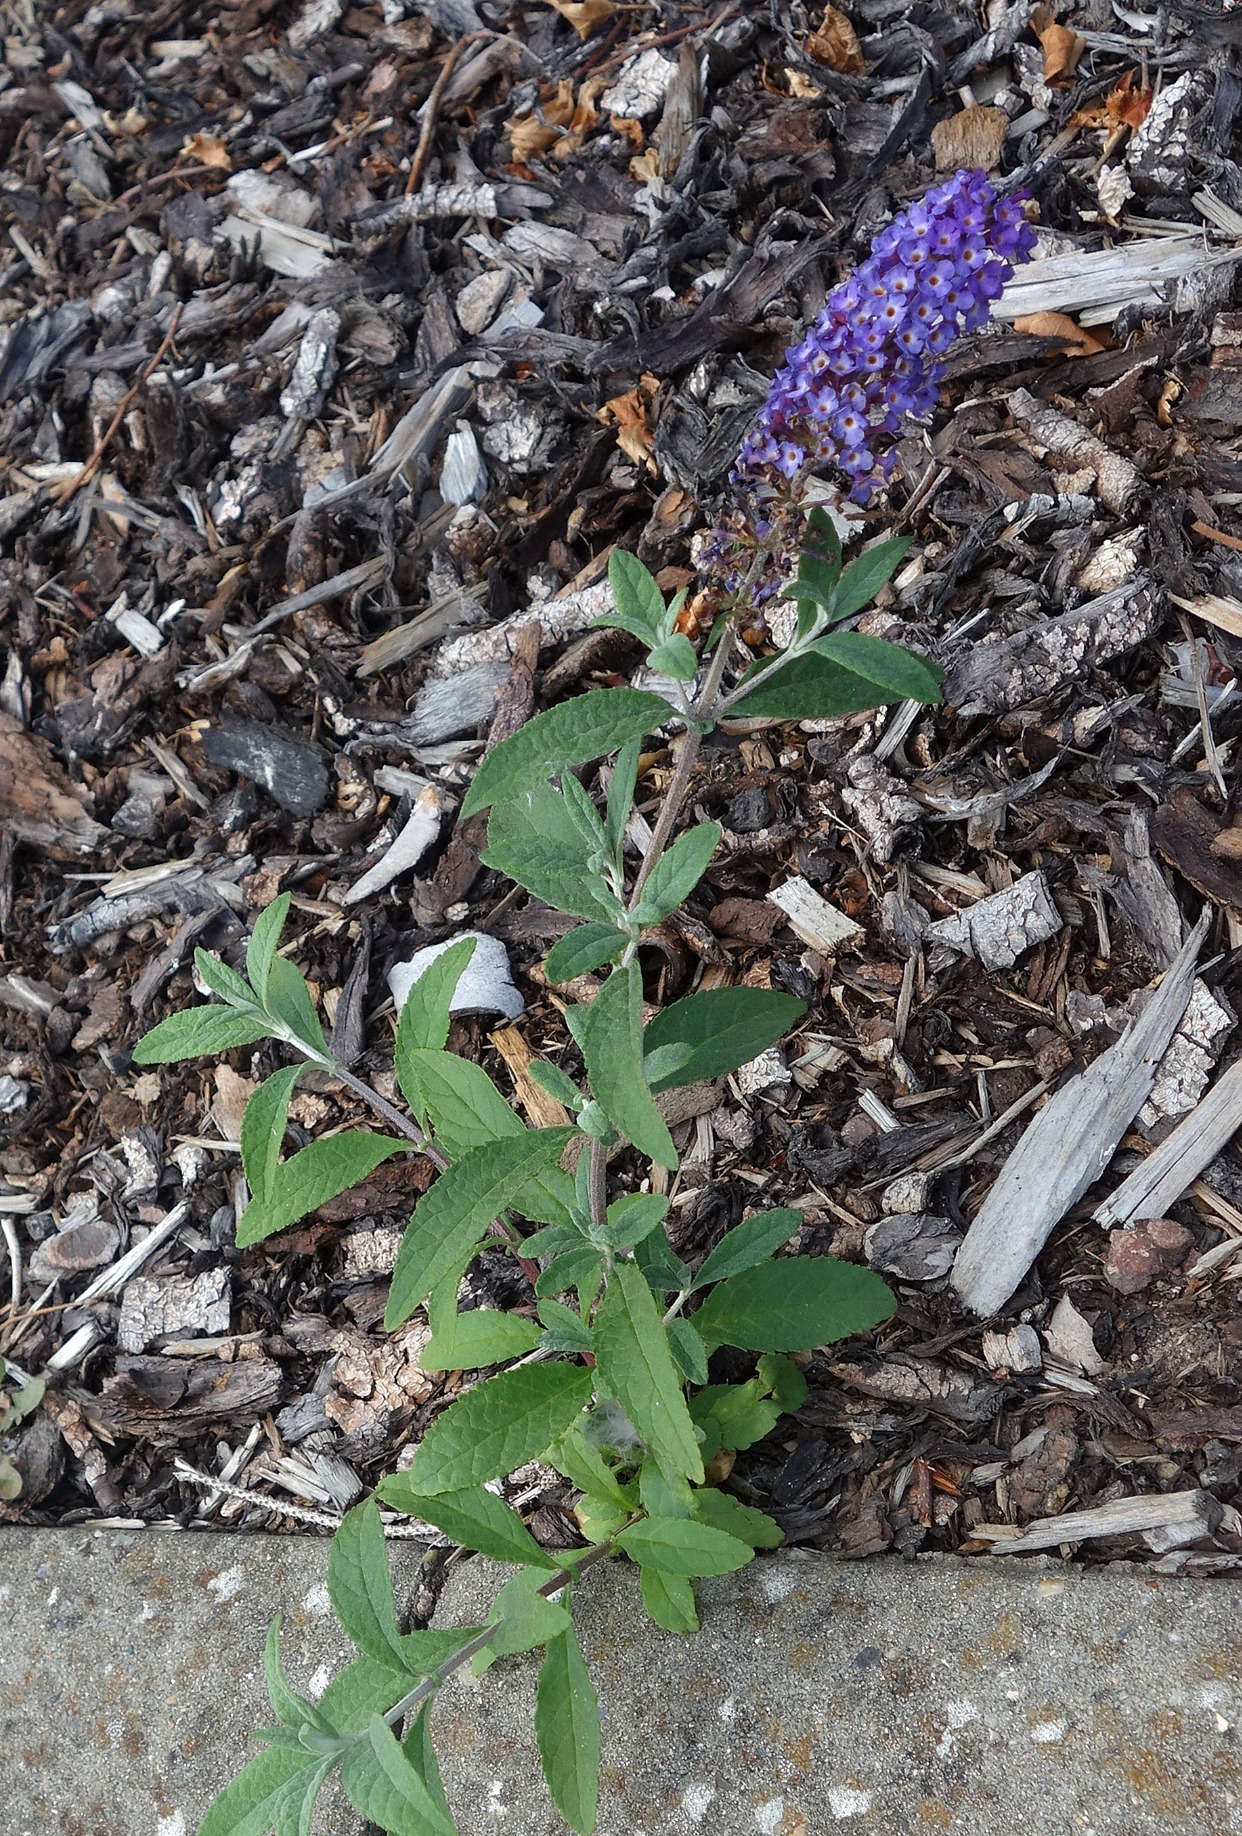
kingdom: Plantae
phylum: Tracheophyta
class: Magnoliopsida
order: Lamiales
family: Scrophulariaceae
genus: Buddleja
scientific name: Buddleja davidii
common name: Sommerfuglebusk
